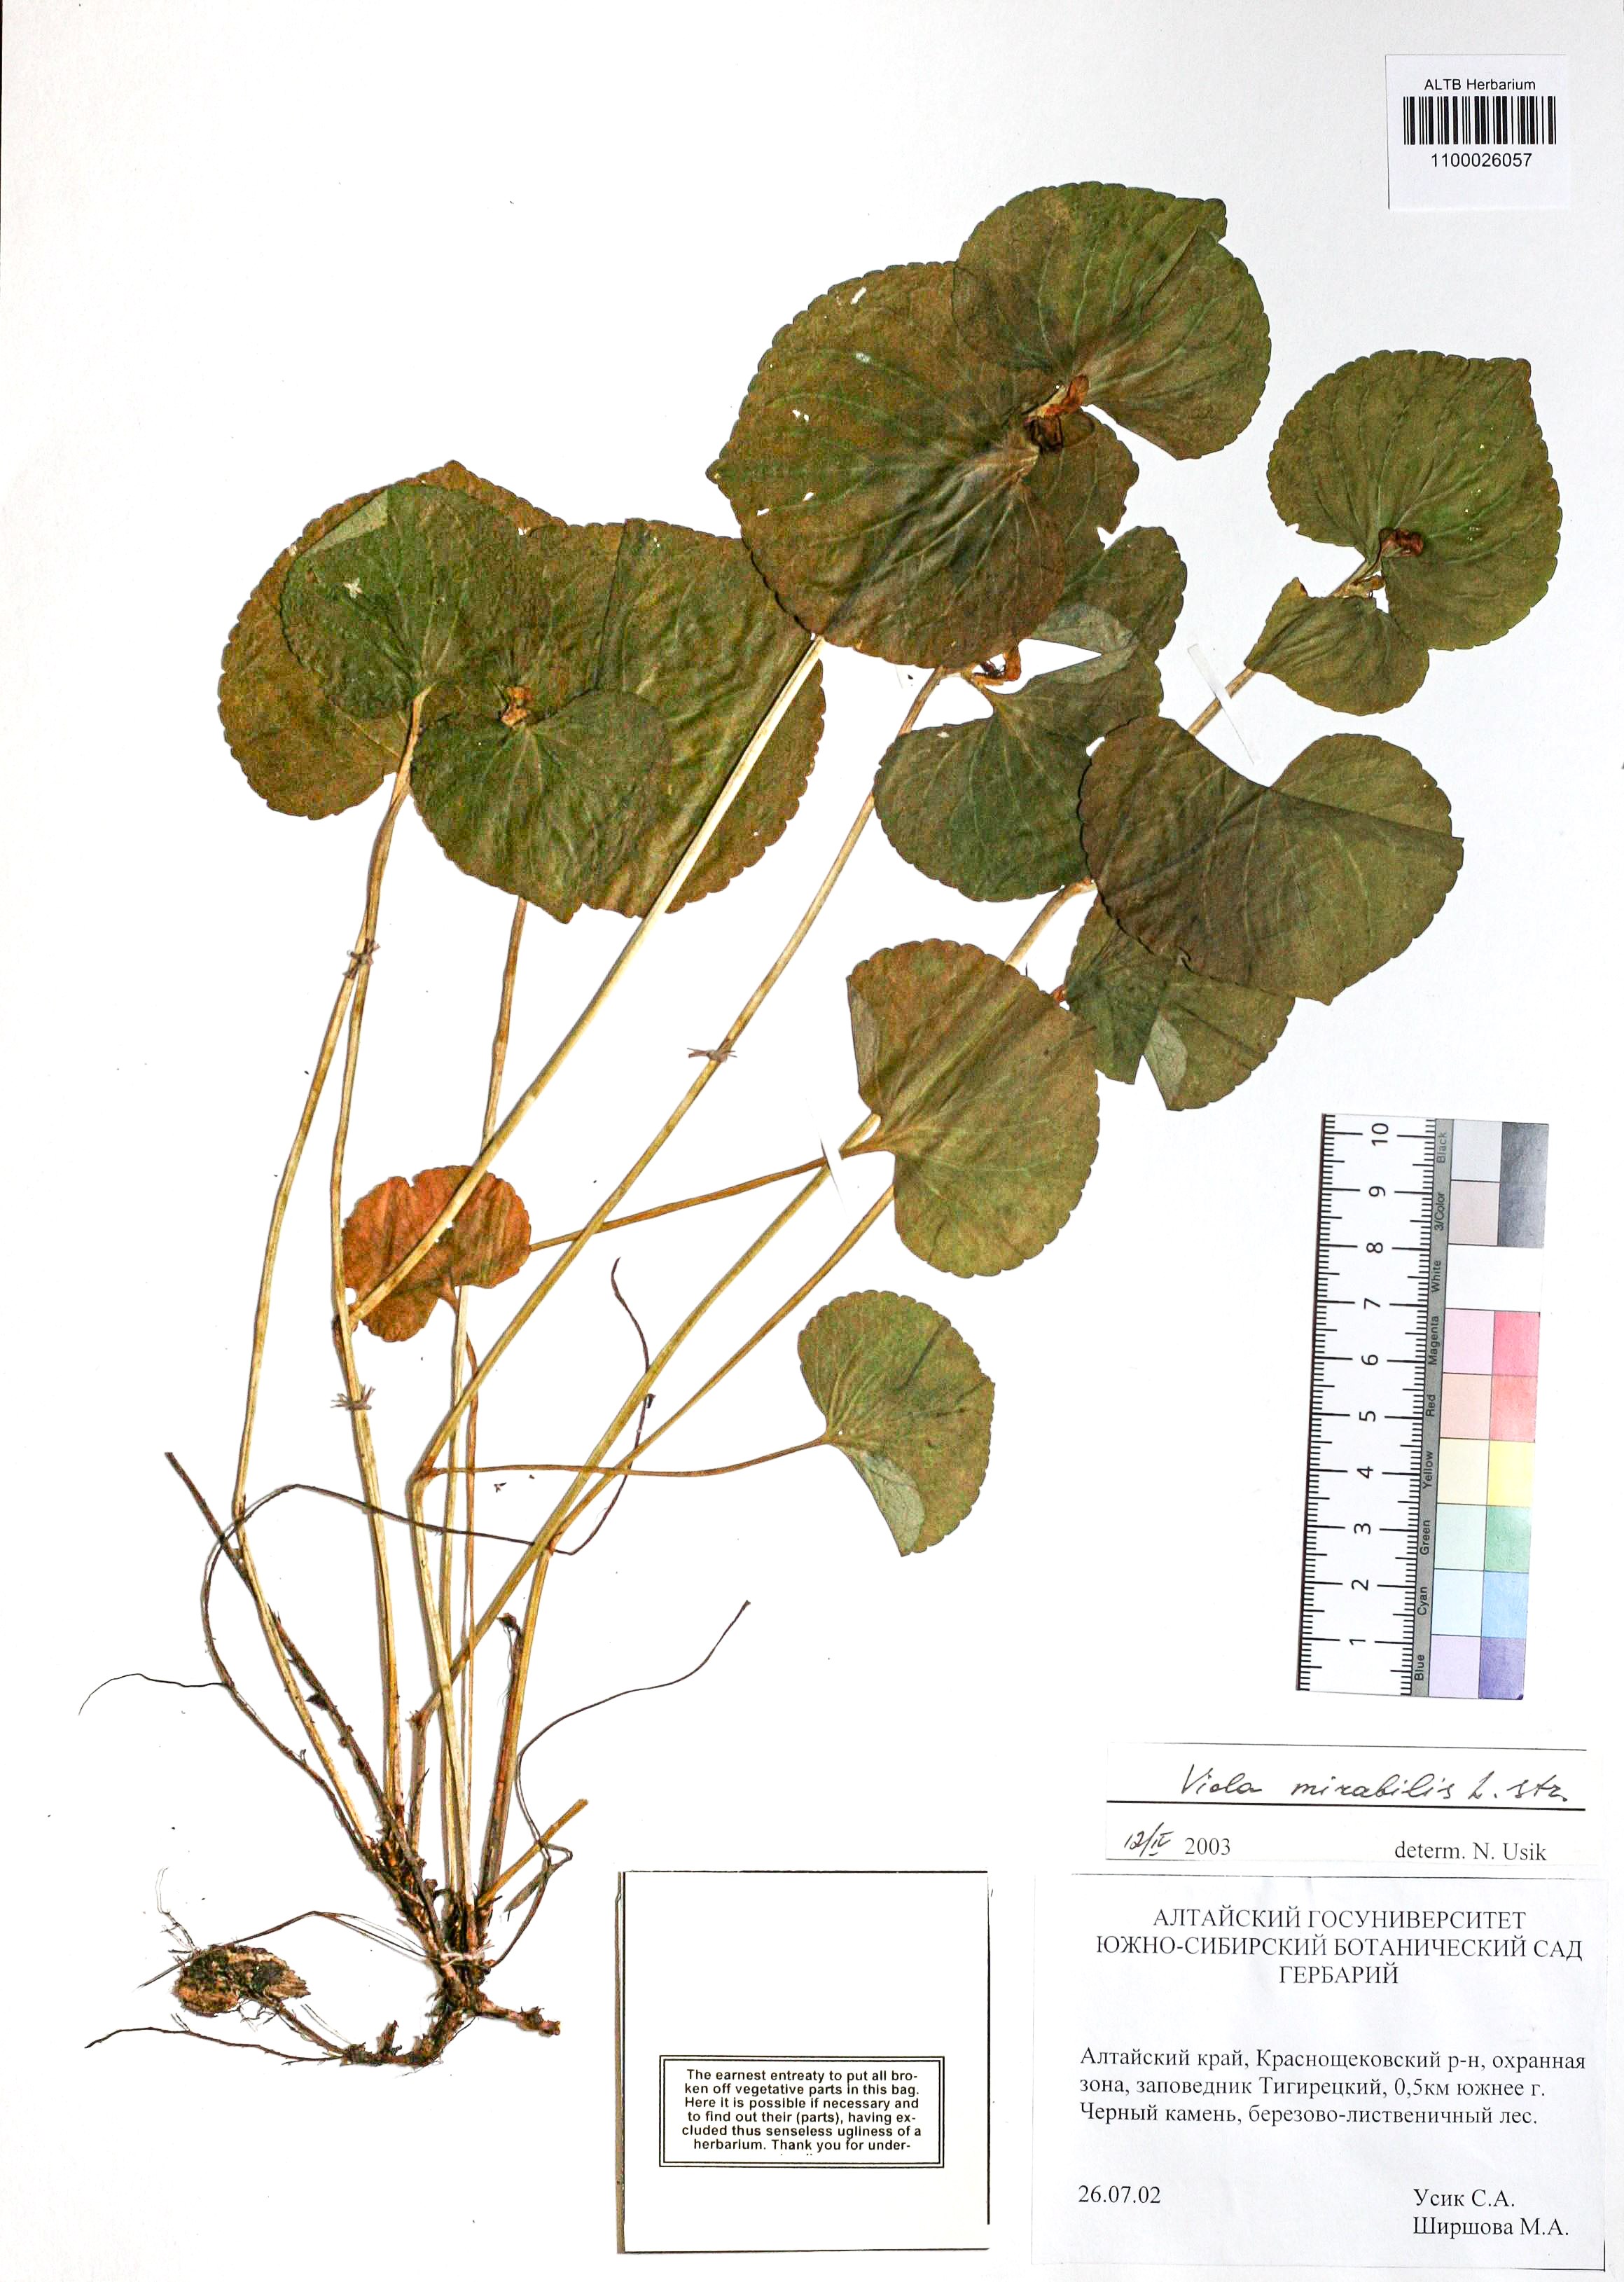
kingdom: Plantae
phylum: Tracheophyta
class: Magnoliopsida
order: Malpighiales
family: Violaceae
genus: Viola
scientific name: Viola mirabilis
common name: Wonder violet
